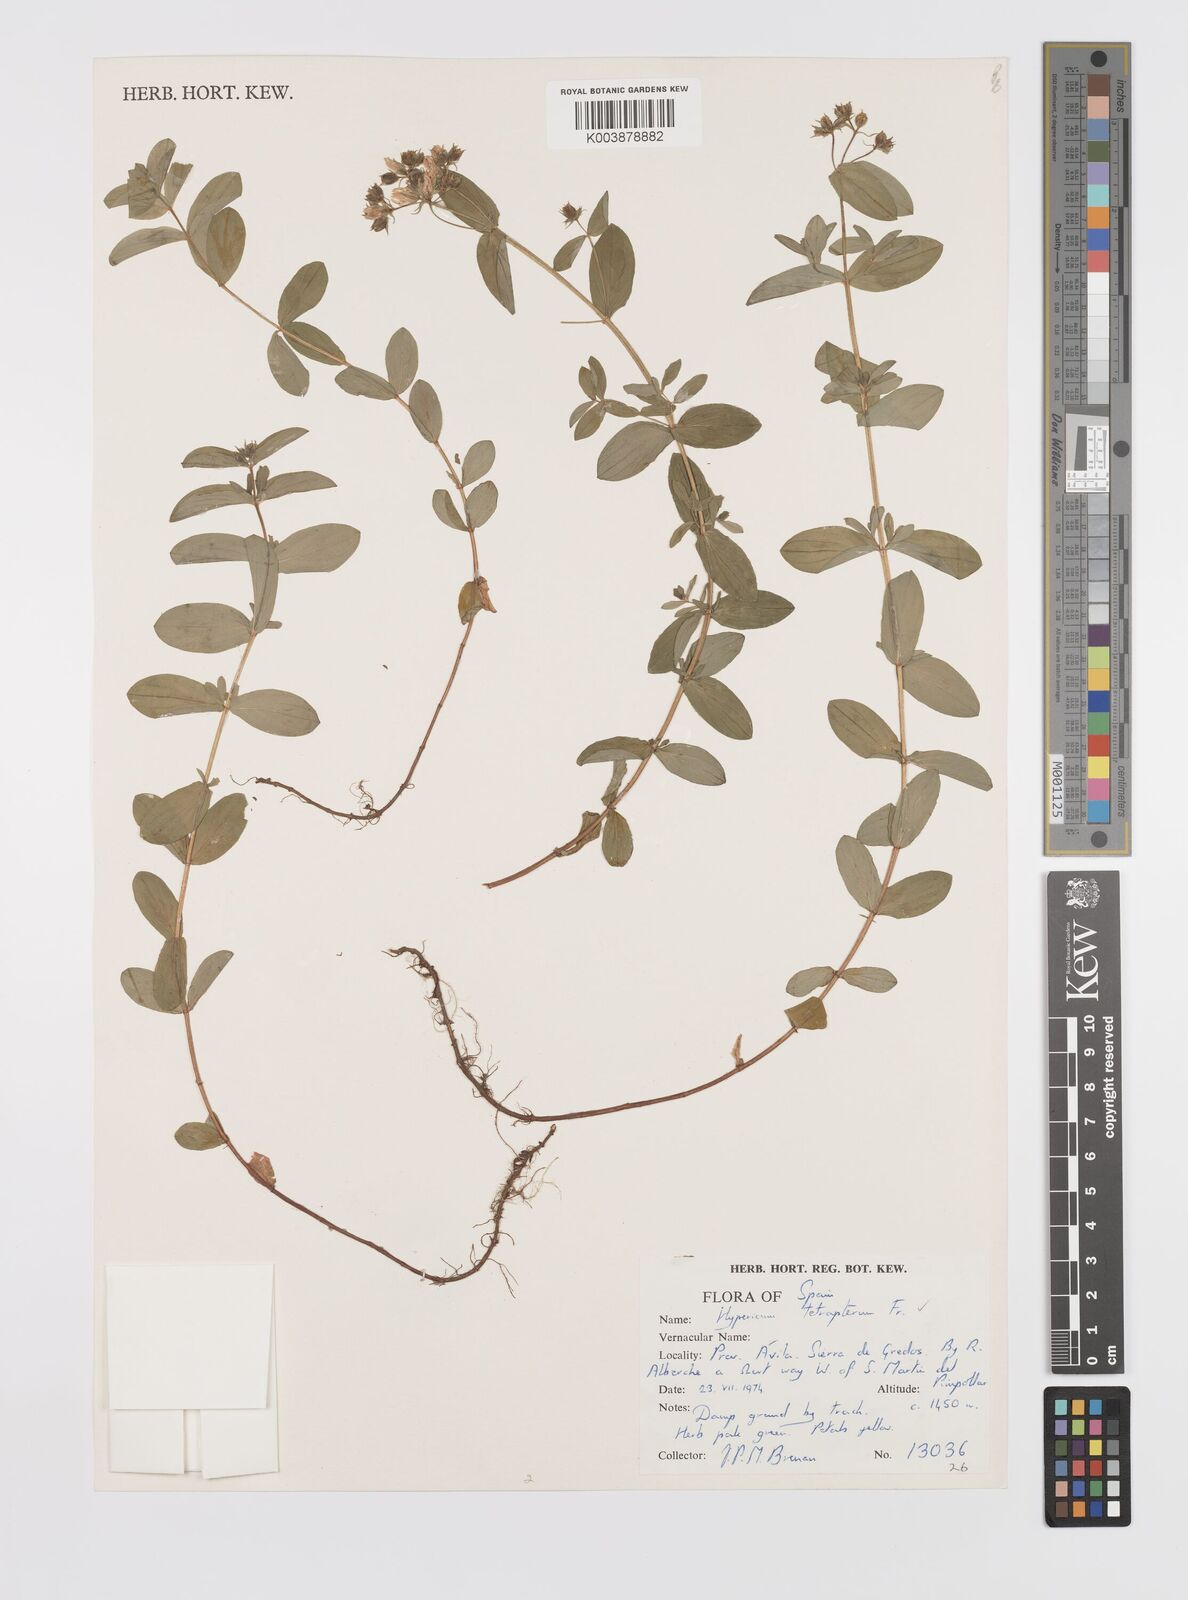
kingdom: Plantae
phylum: Tracheophyta
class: Magnoliopsida
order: Malpighiales
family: Hypericaceae
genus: Hypericum
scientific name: Hypericum tetrapterum
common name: Square-stalked st. john's-wort
